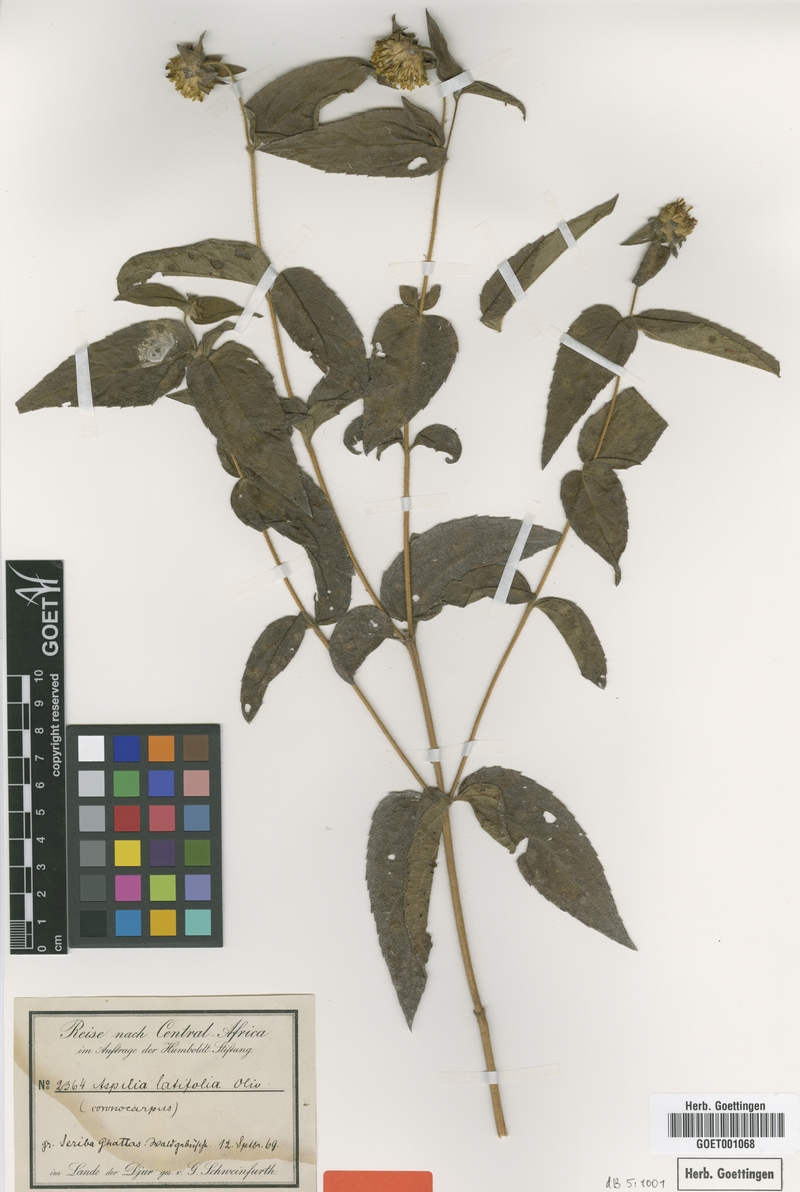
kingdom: Plantae
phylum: Tracheophyta
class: Magnoliopsida
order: Asterales
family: Asteraceae
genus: Aspilia
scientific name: Aspilia africana
